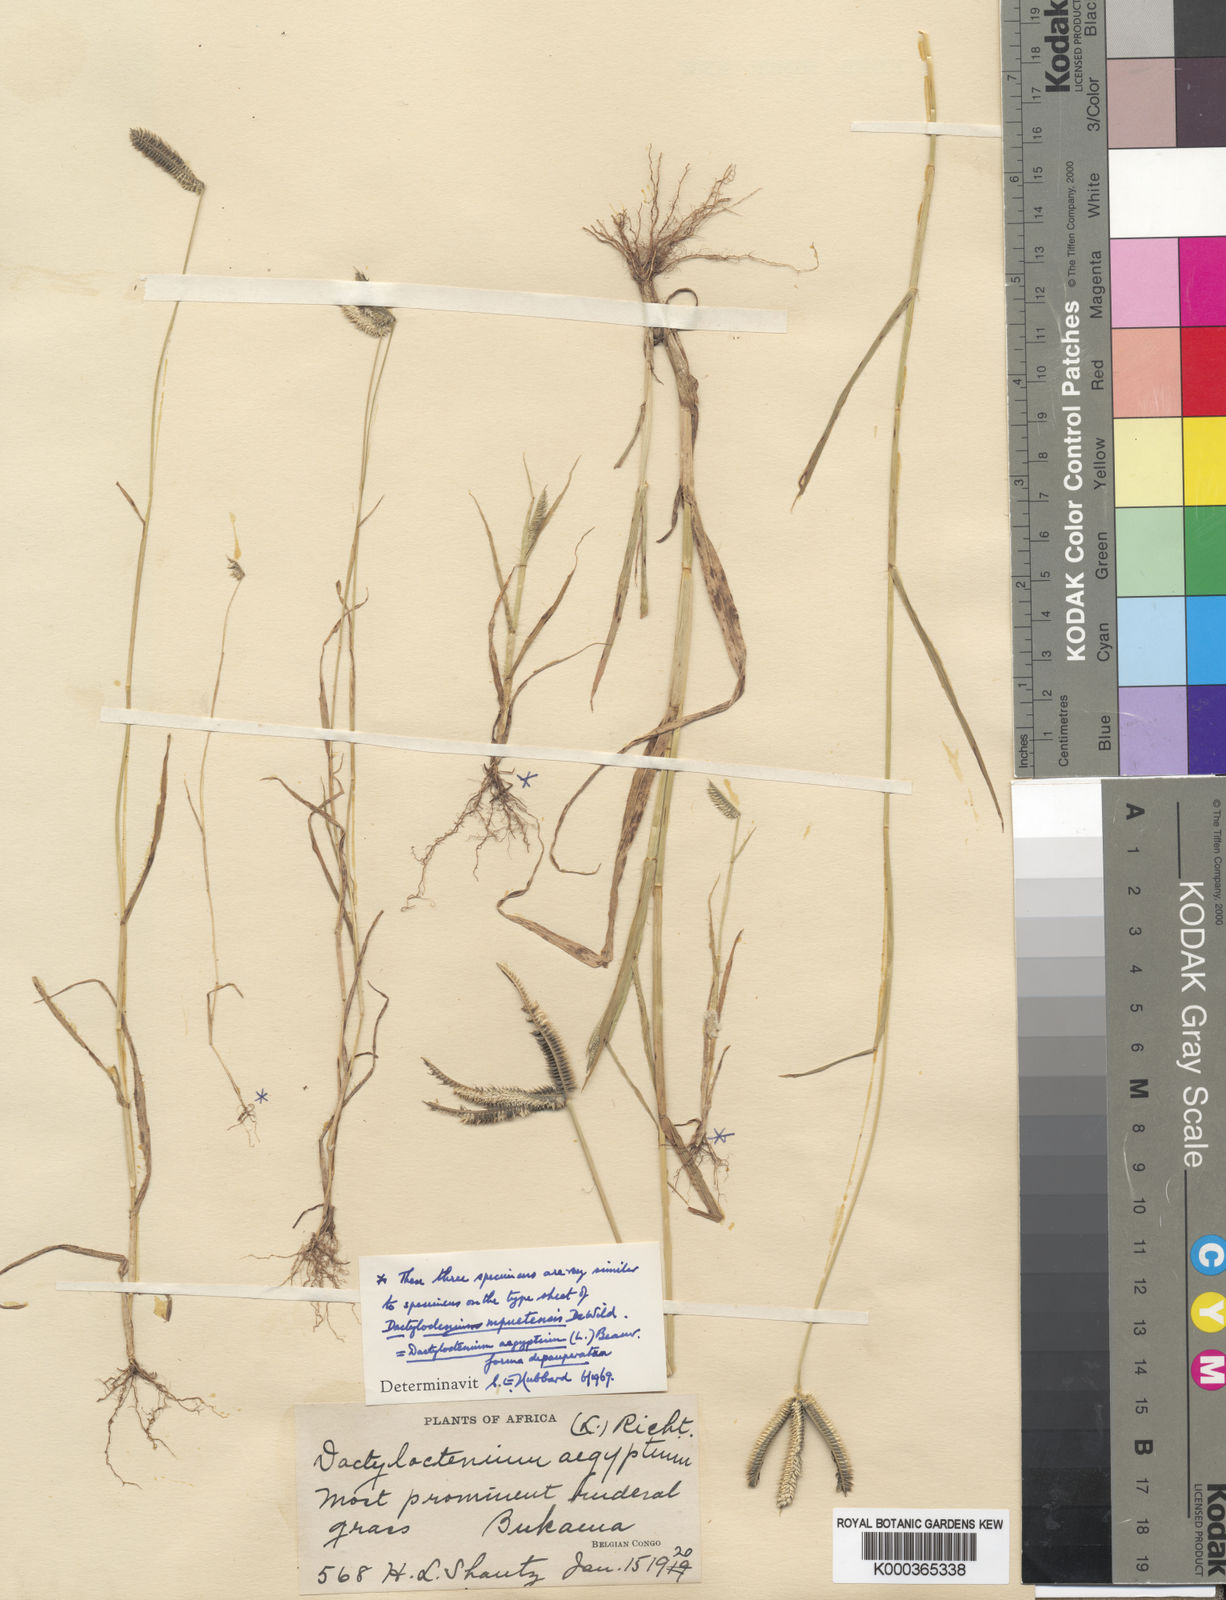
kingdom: Plantae
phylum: Tracheophyta
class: Liliopsida
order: Poales
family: Poaceae
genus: Dactyloctenium
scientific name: Dactyloctenium
